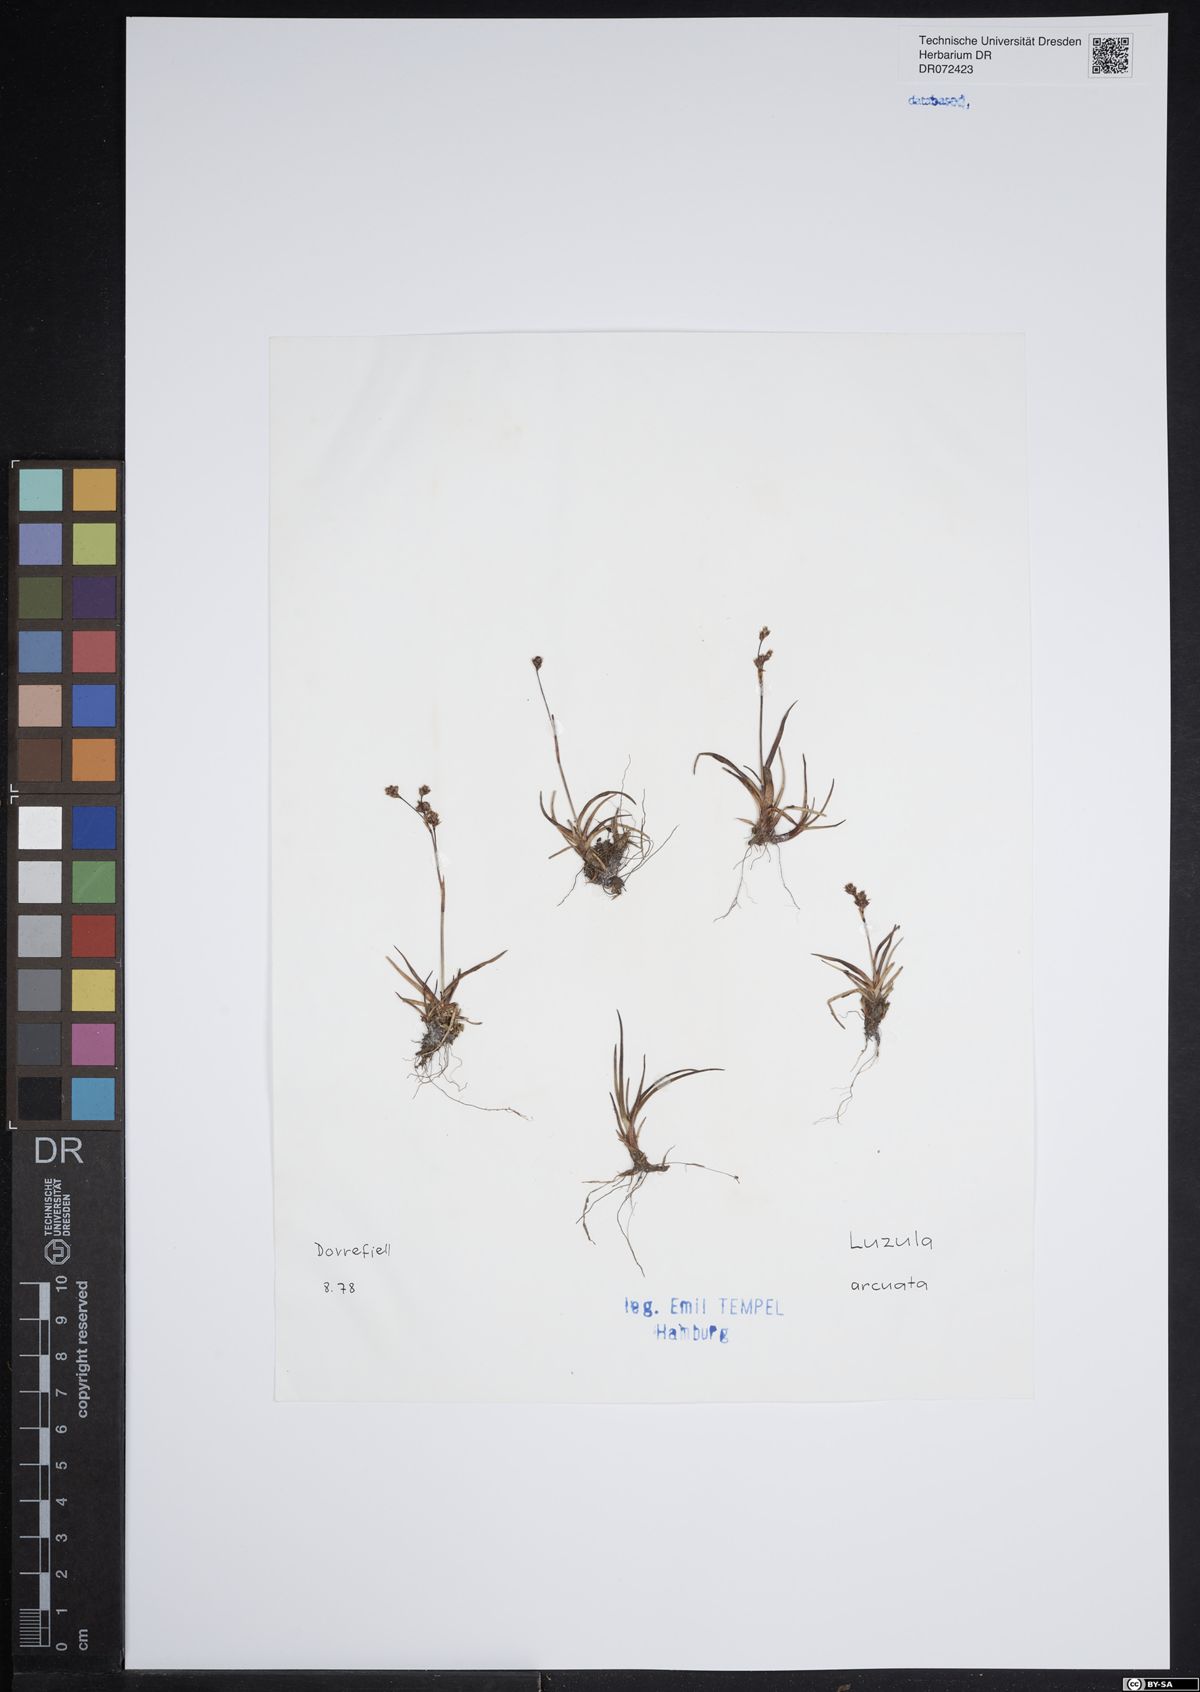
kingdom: Plantae
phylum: Tracheophyta
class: Liliopsida
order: Poales
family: Juncaceae
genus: Luzula
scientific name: Luzula arcuata
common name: Curved wood-rush
